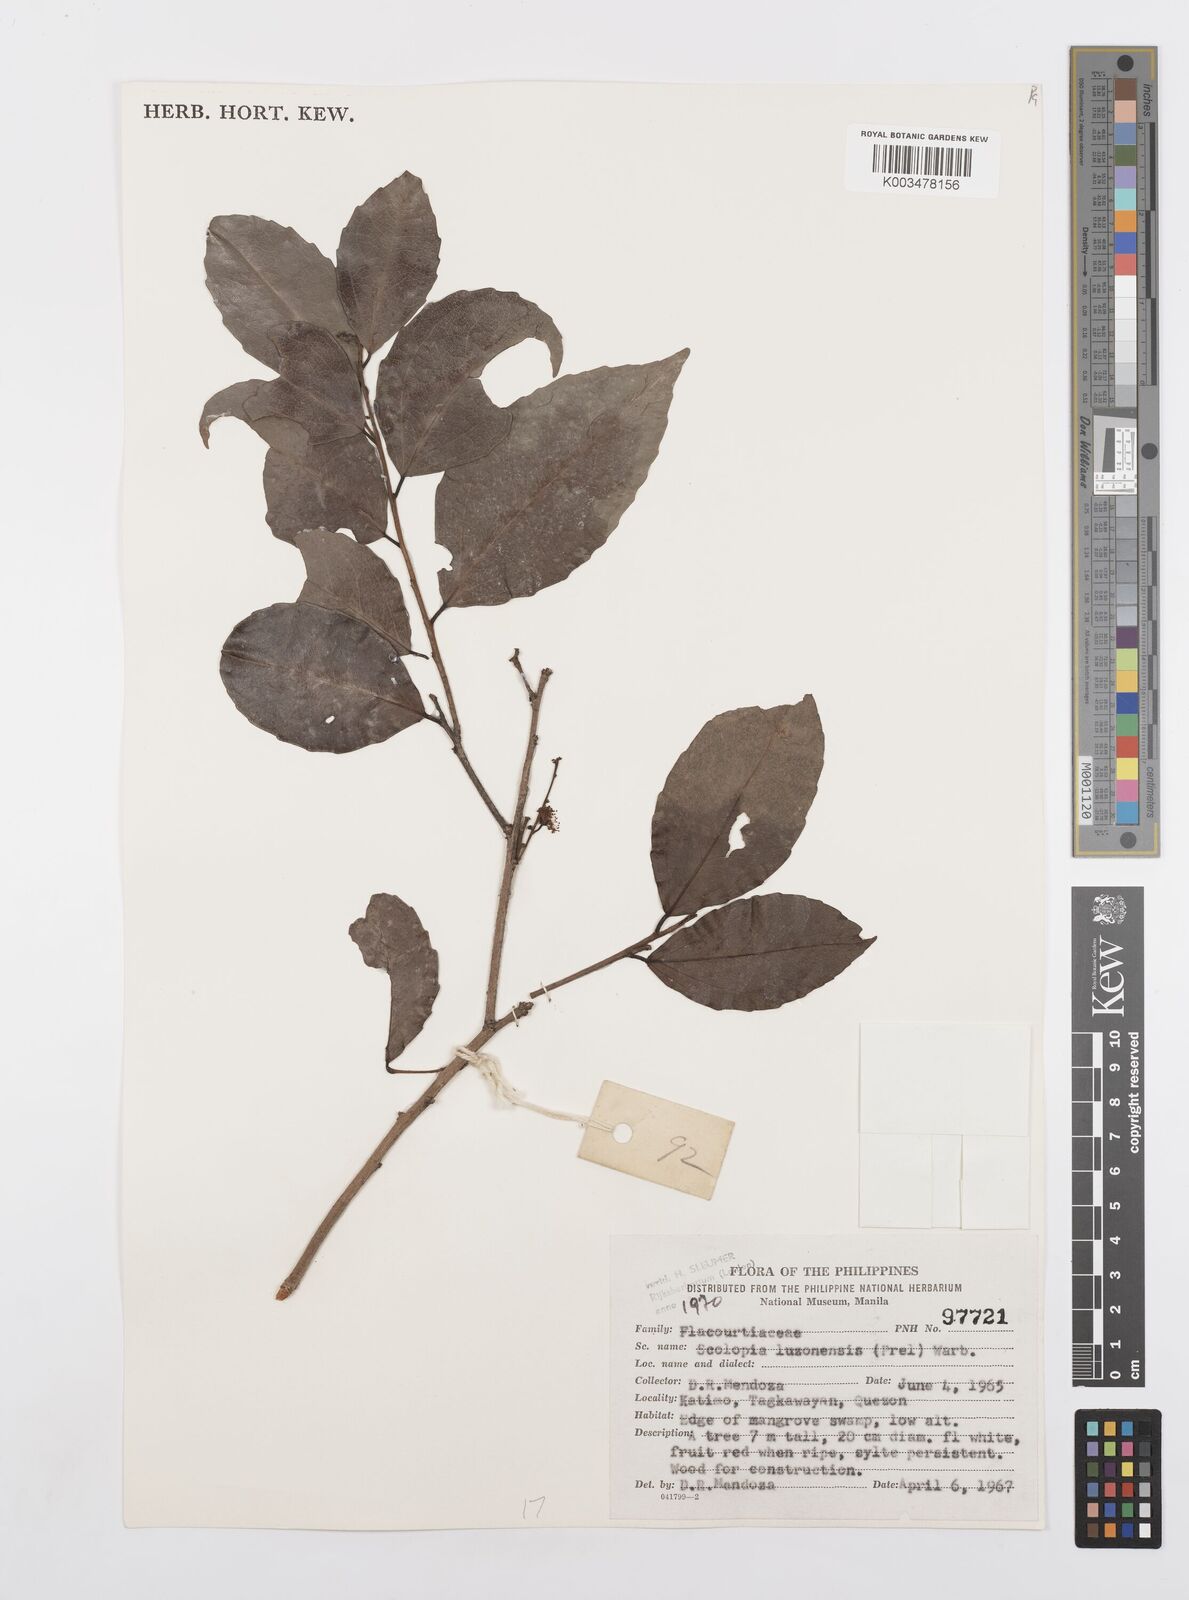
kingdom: Plantae
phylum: Tracheophyta
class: Magnoliopsida
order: Malpighiales
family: Salicaceae
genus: Scolopia
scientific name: Scolopia luzonensis
